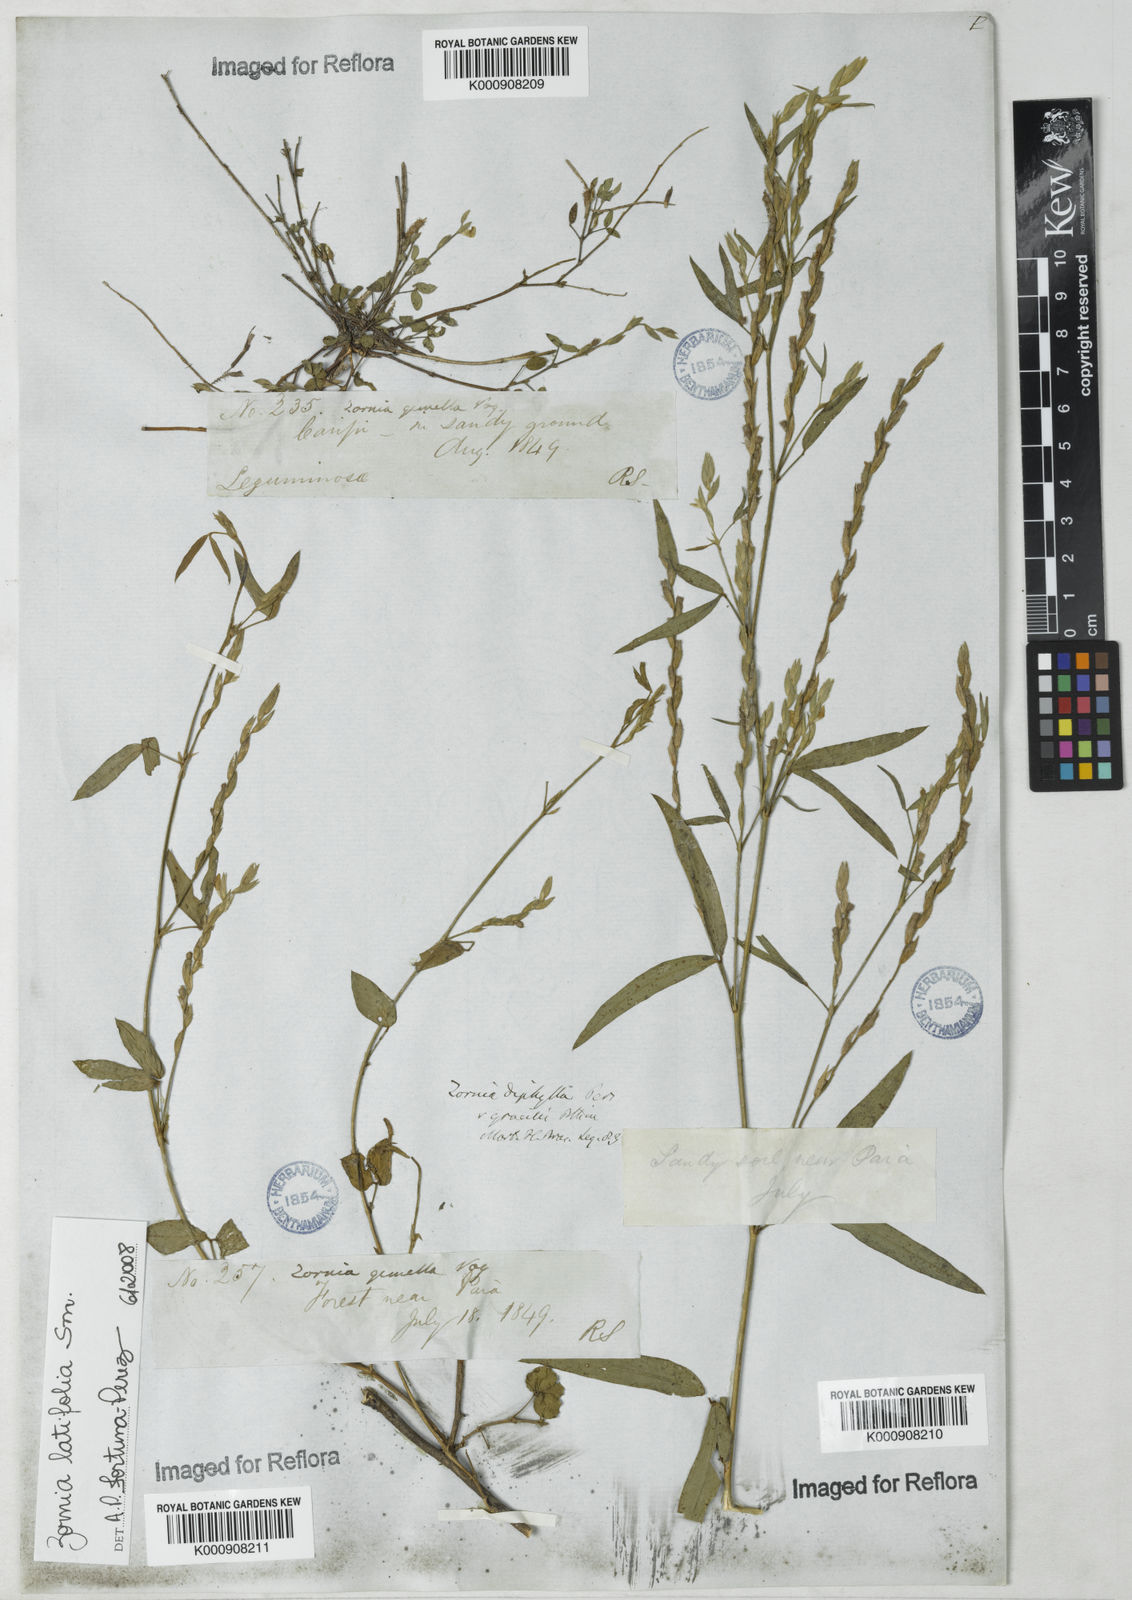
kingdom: Plantae
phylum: Tracheophyta
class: Magnoliopsida
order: Fabales
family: Fabaceae
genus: Zornia
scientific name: Zornia latifolia
